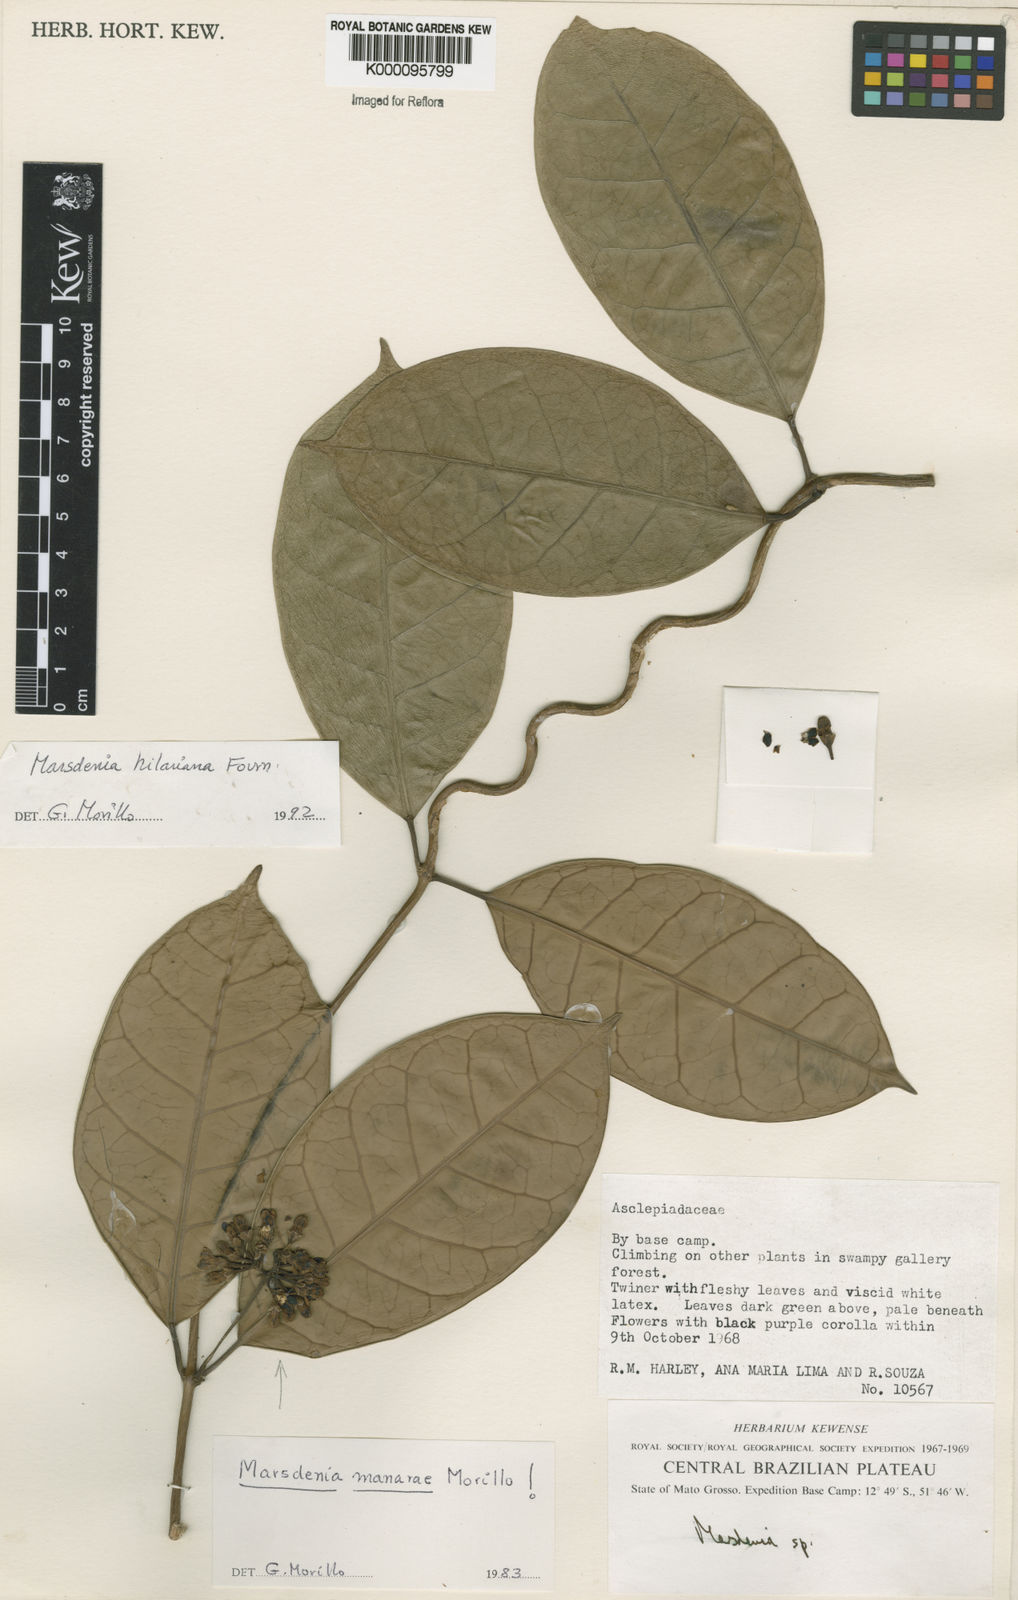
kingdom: Plantae
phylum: Tracheophyta
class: Magnoliopsida
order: Gentianales
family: Apocynaceae
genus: Ruehssia
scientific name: Ruehssia hilariana
